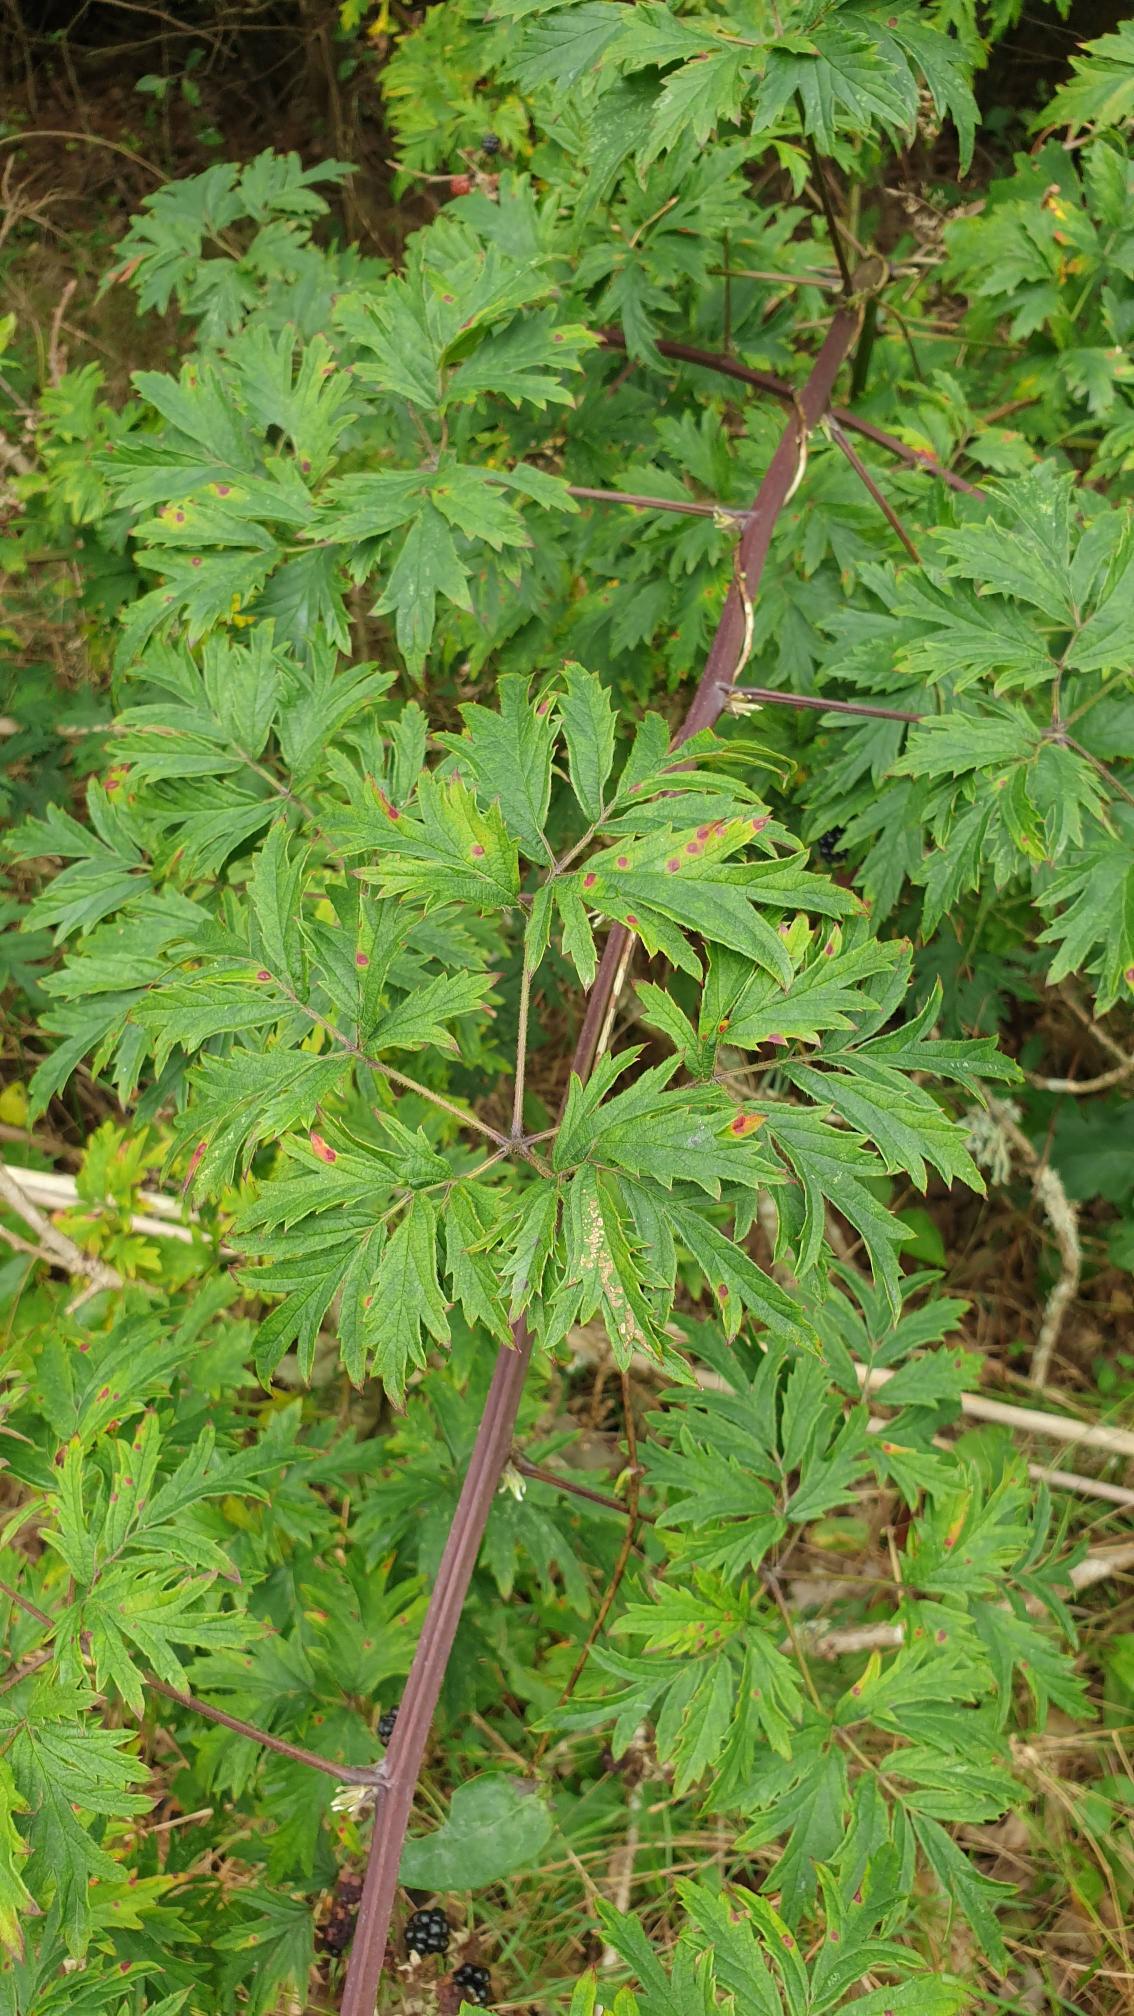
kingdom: Plantae
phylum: Tracheophyta
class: Magnoliopsida
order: Rosales
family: Rosaceae
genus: Rubus
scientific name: Rubus laciniatus
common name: Fliget brombær
